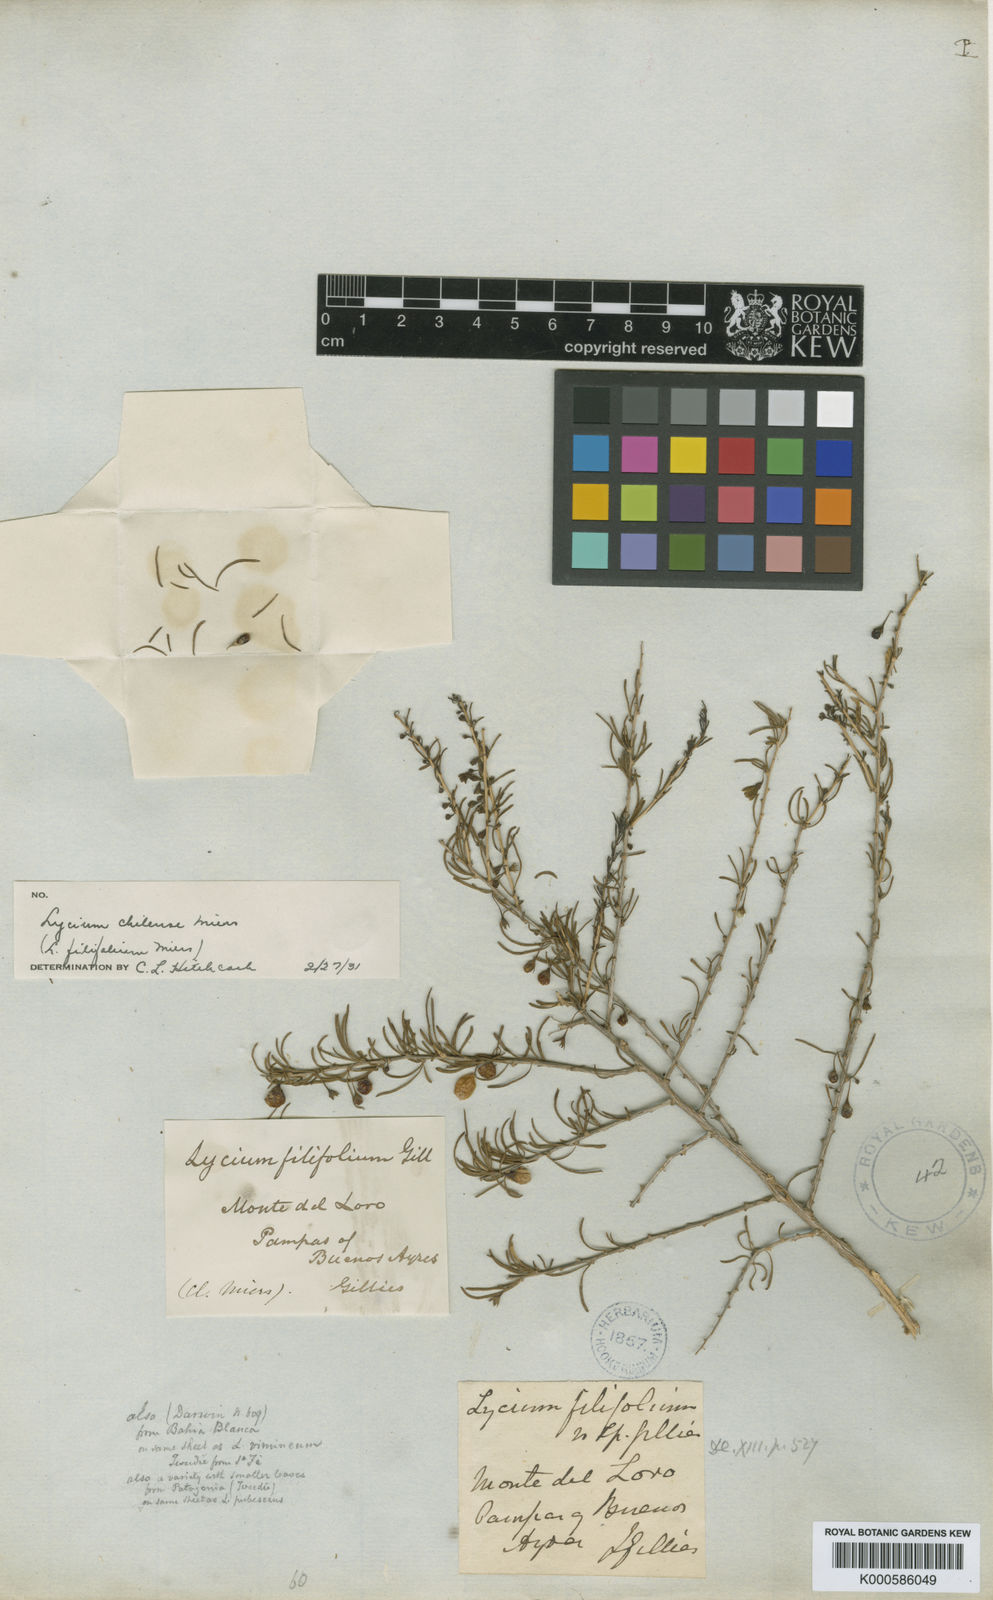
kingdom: Plantae
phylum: Tracheophyta
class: Magnoliopsida
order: Solanales
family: Solanaceae
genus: Lycium
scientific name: Lycium chilense
